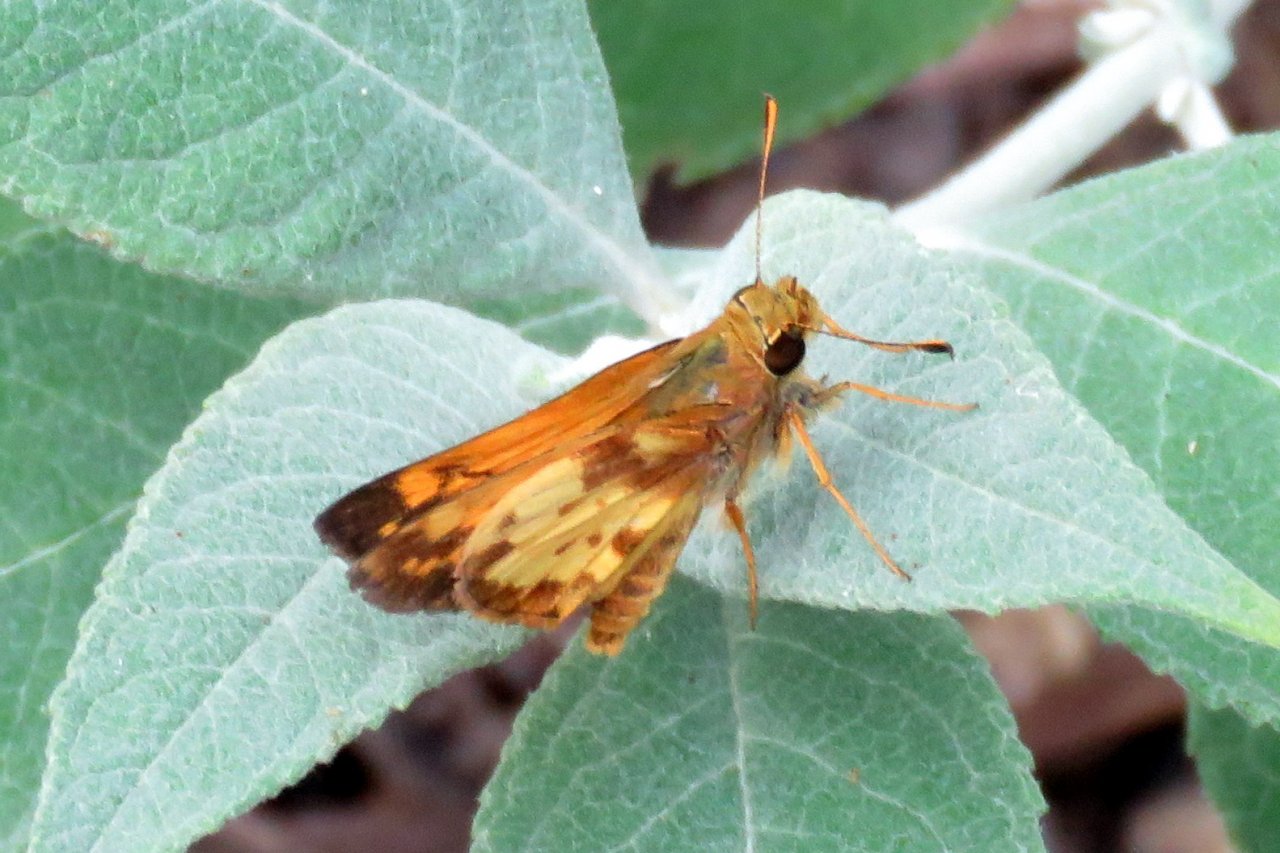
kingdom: Animalia
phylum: Arthropoda
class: Insecta
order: Lepidoptera
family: Hesperiidae
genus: Lon
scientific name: Lon zabulon
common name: Zabulon Skipper
